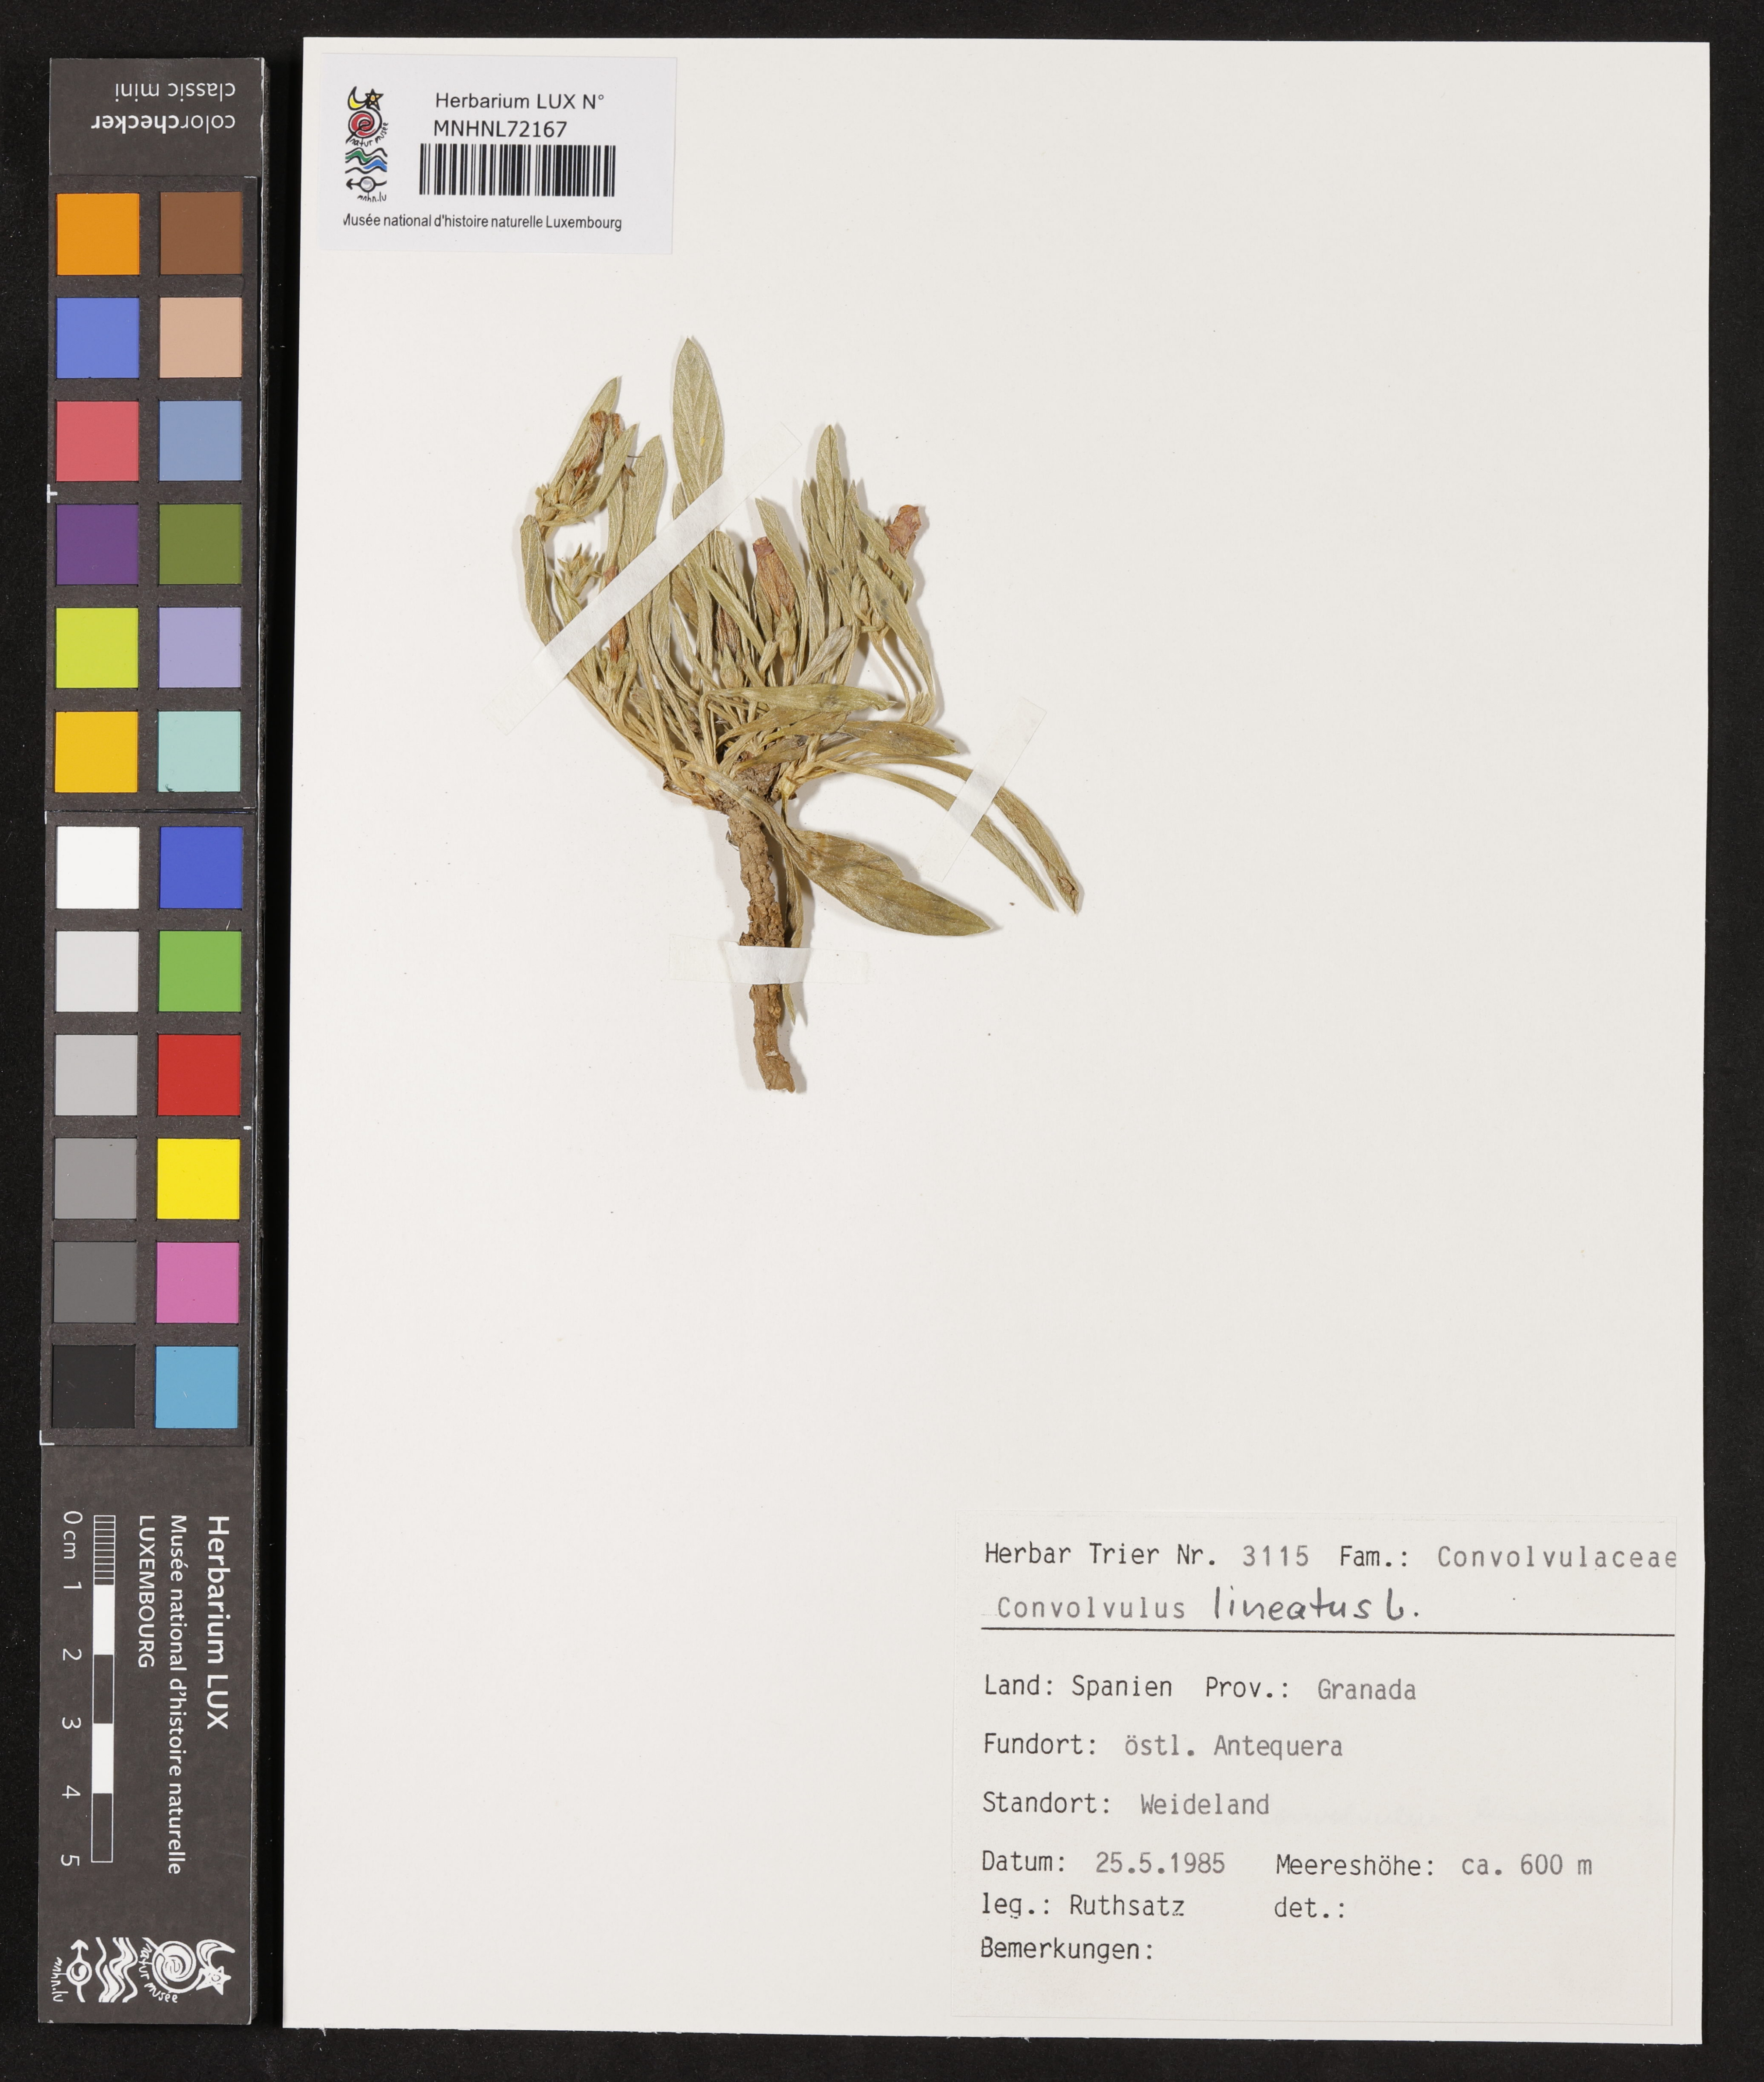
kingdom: Plantae
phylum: Tracheophyta
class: Magnoliopsida
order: Solanales
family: Convolvulaceae
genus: Convolvulus
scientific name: Convolvulus lineatus
